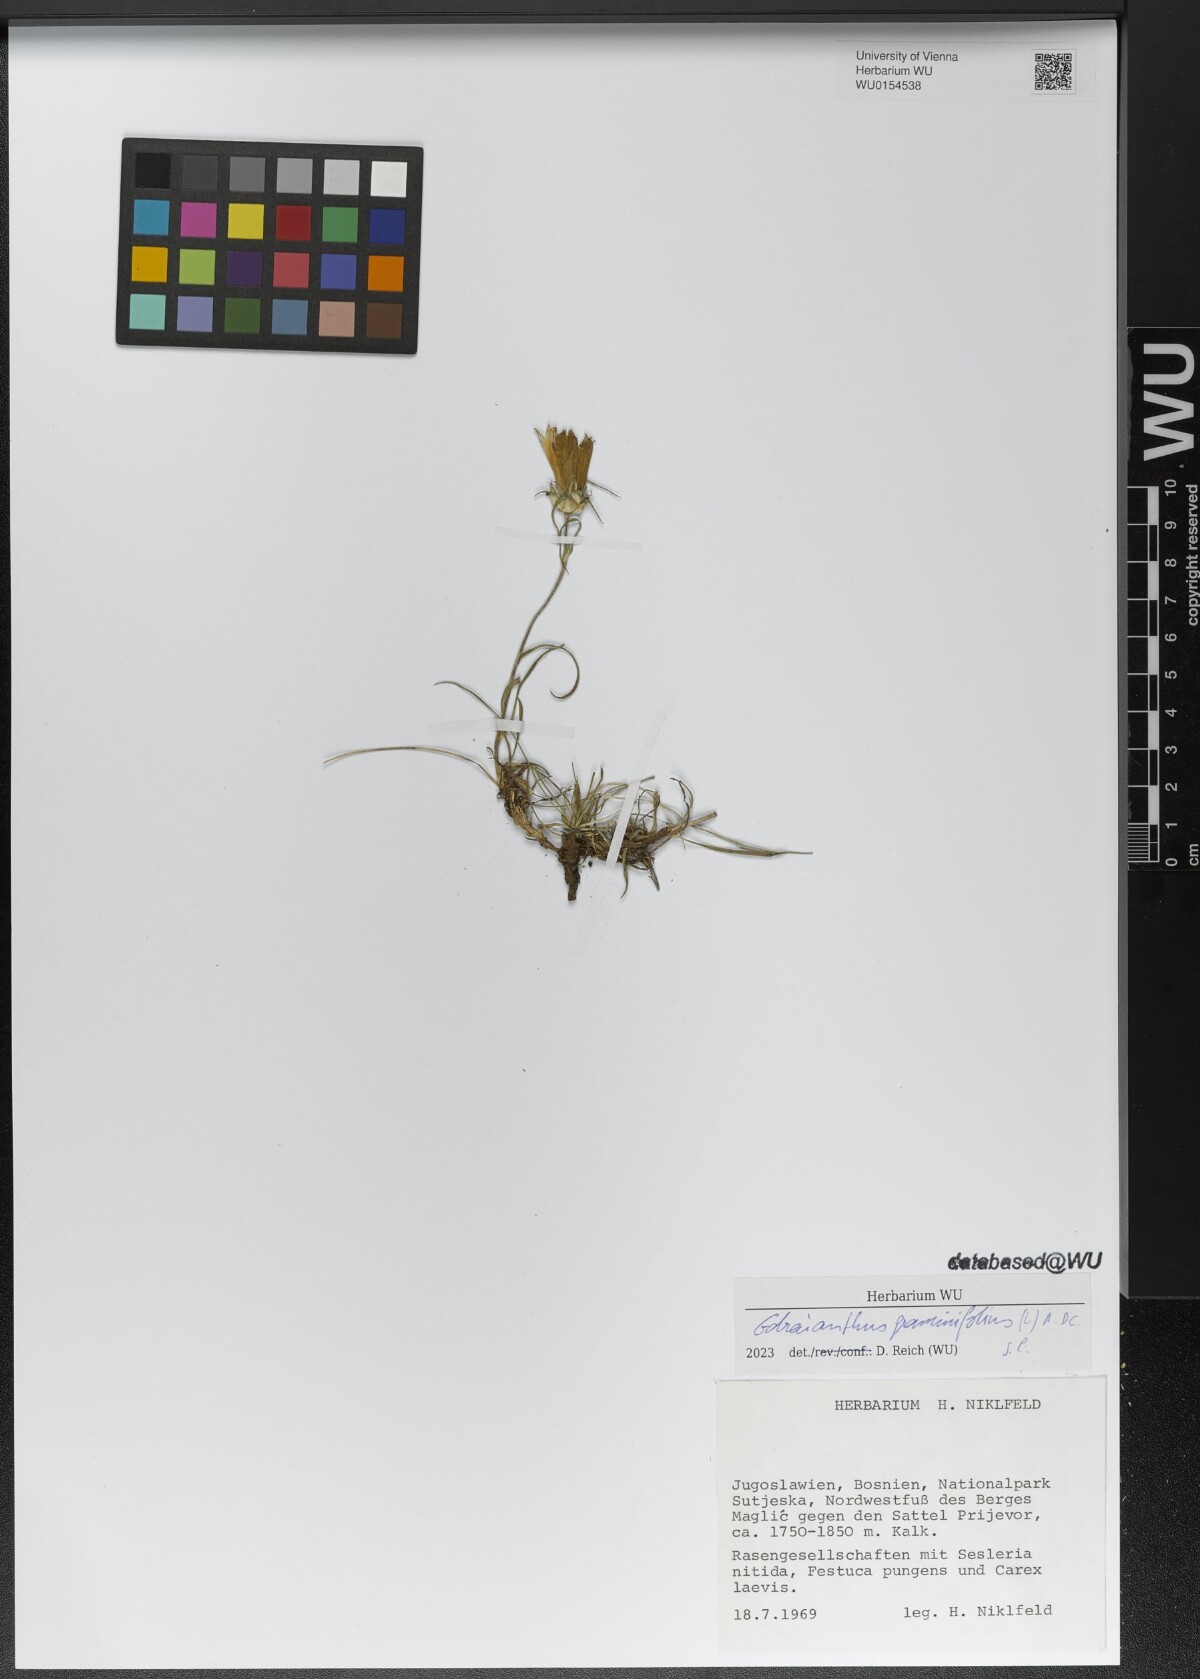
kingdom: Plantae
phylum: Tracheophyta
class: Magnoliopsida
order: Asterales
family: Campanulaceae
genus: Edraianthus
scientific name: Edraianthus graminifolius
